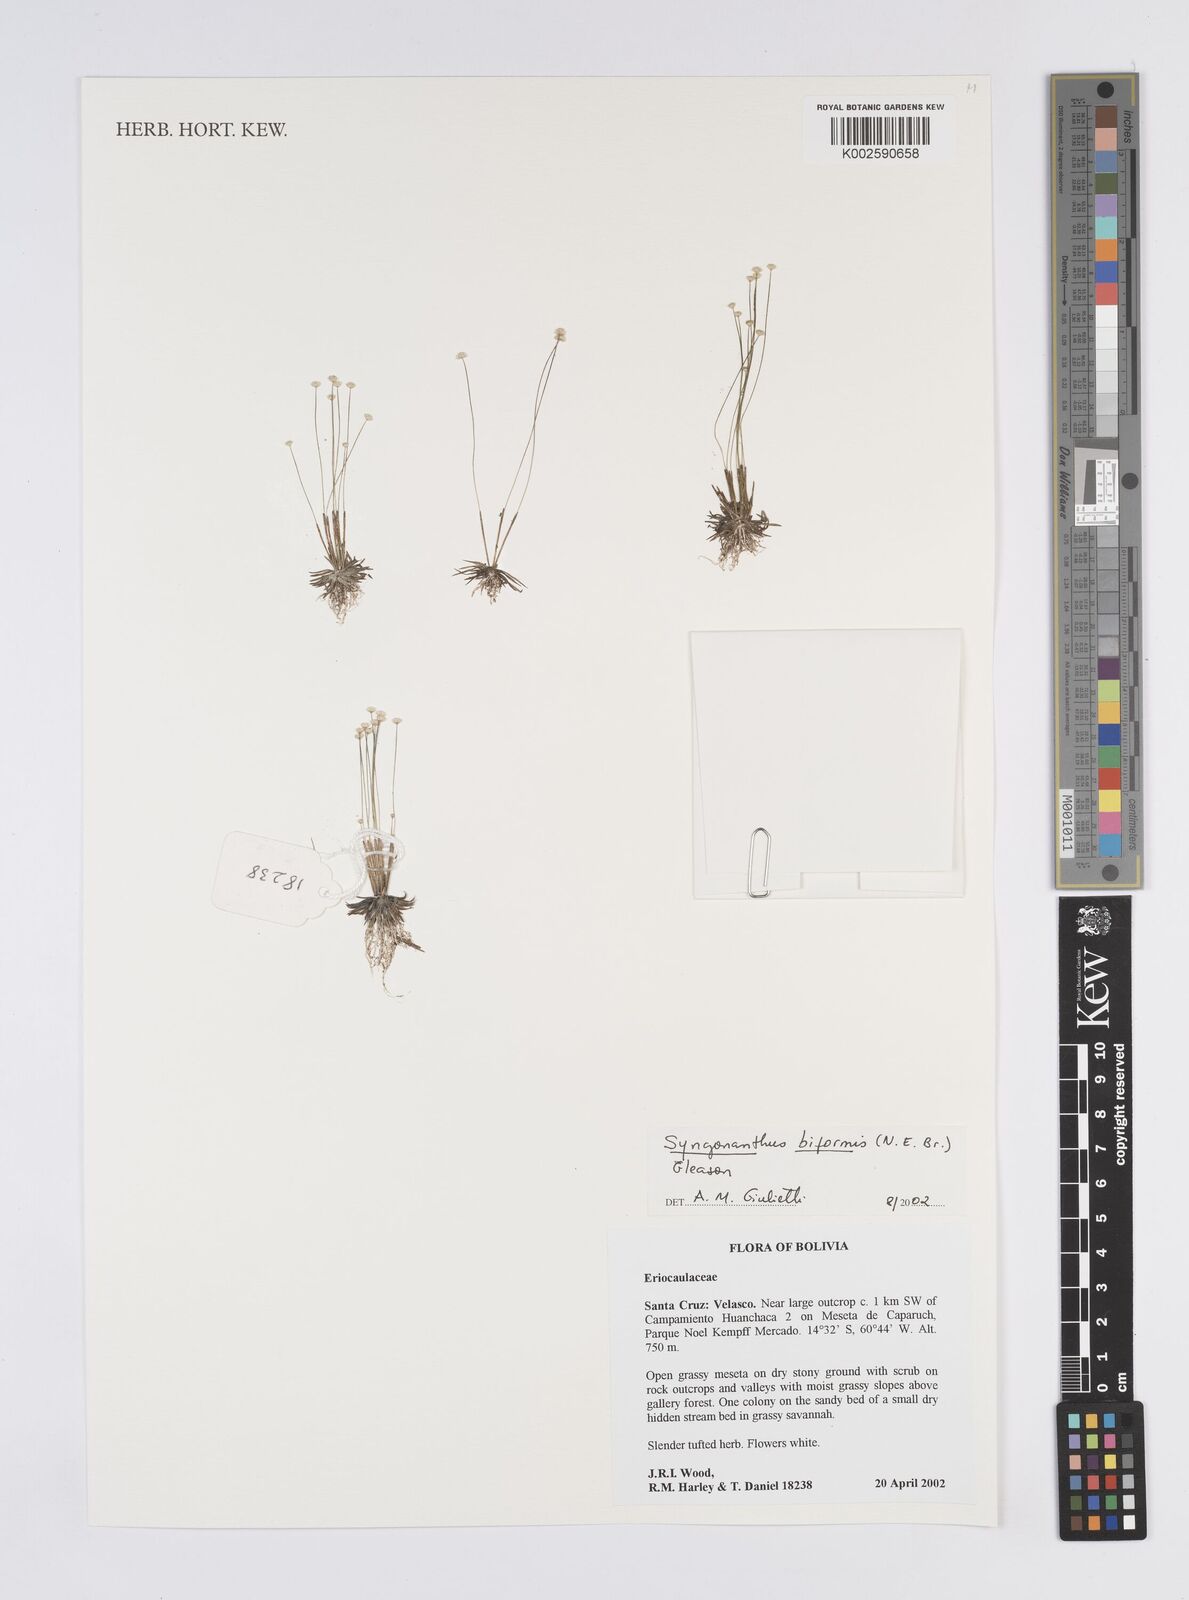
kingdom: Plantae
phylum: Tracheophyta
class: Liliopsida
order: Poales
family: Eriocaulaceae
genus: Syngonanthus
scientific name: Syngonanthus biformis
